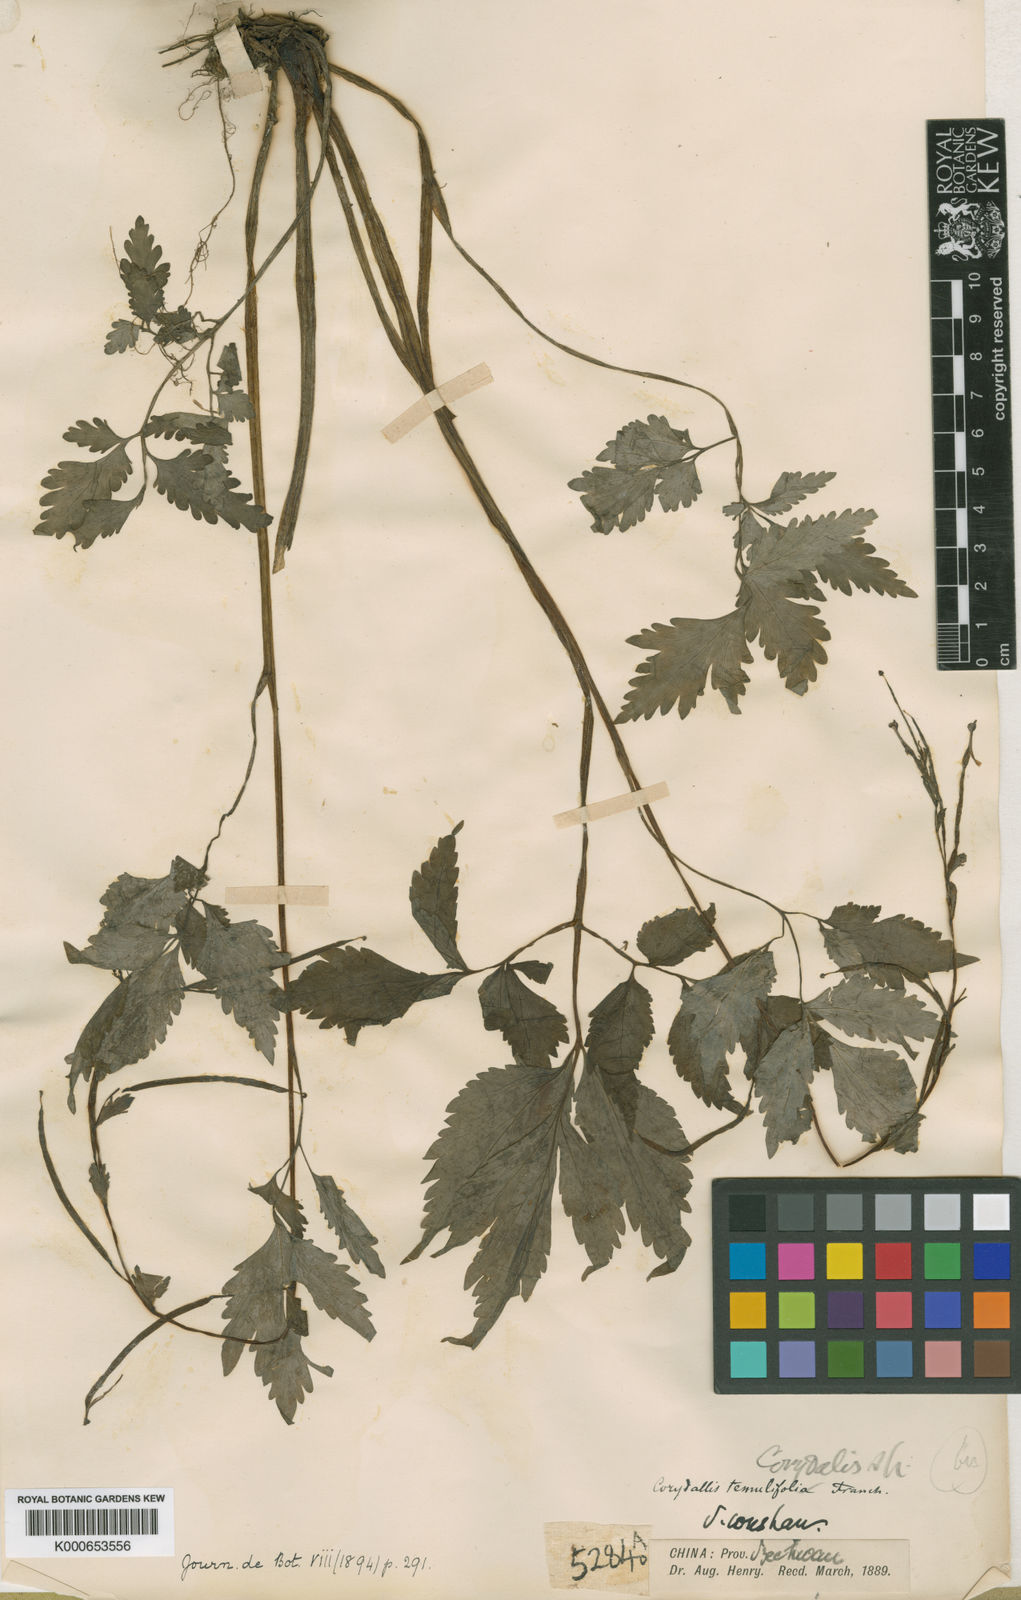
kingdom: Plantae
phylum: Tracheophyta
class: Magnoliopsida
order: Ranunculales
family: Papaveraceae
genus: Corydalis
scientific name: Corydalis temulifolia
